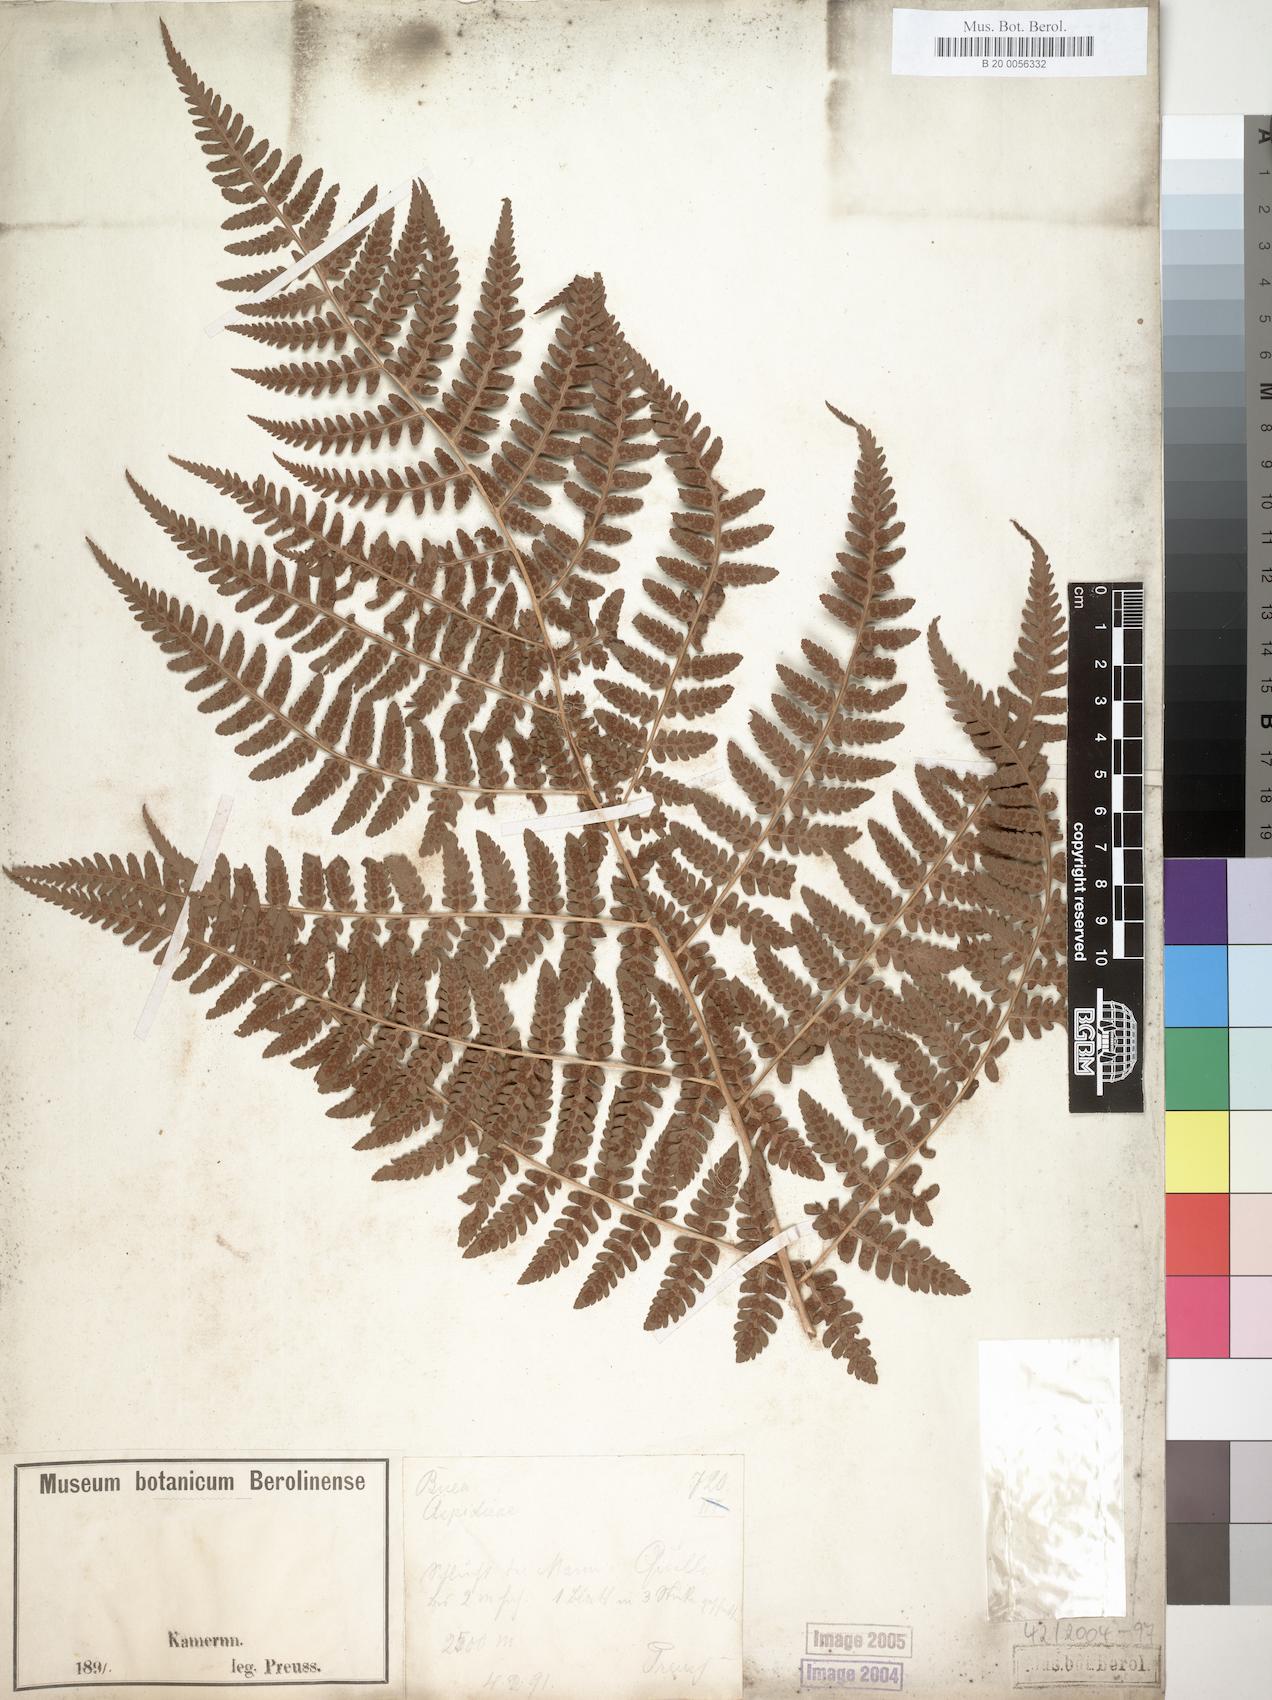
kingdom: Plantae
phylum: Tracheophyta
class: Polypodiopsida
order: Polypodiales
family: Dryopteridaceae
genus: Dryopteris
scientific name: Dryopteris filix-mas
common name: Male fern
